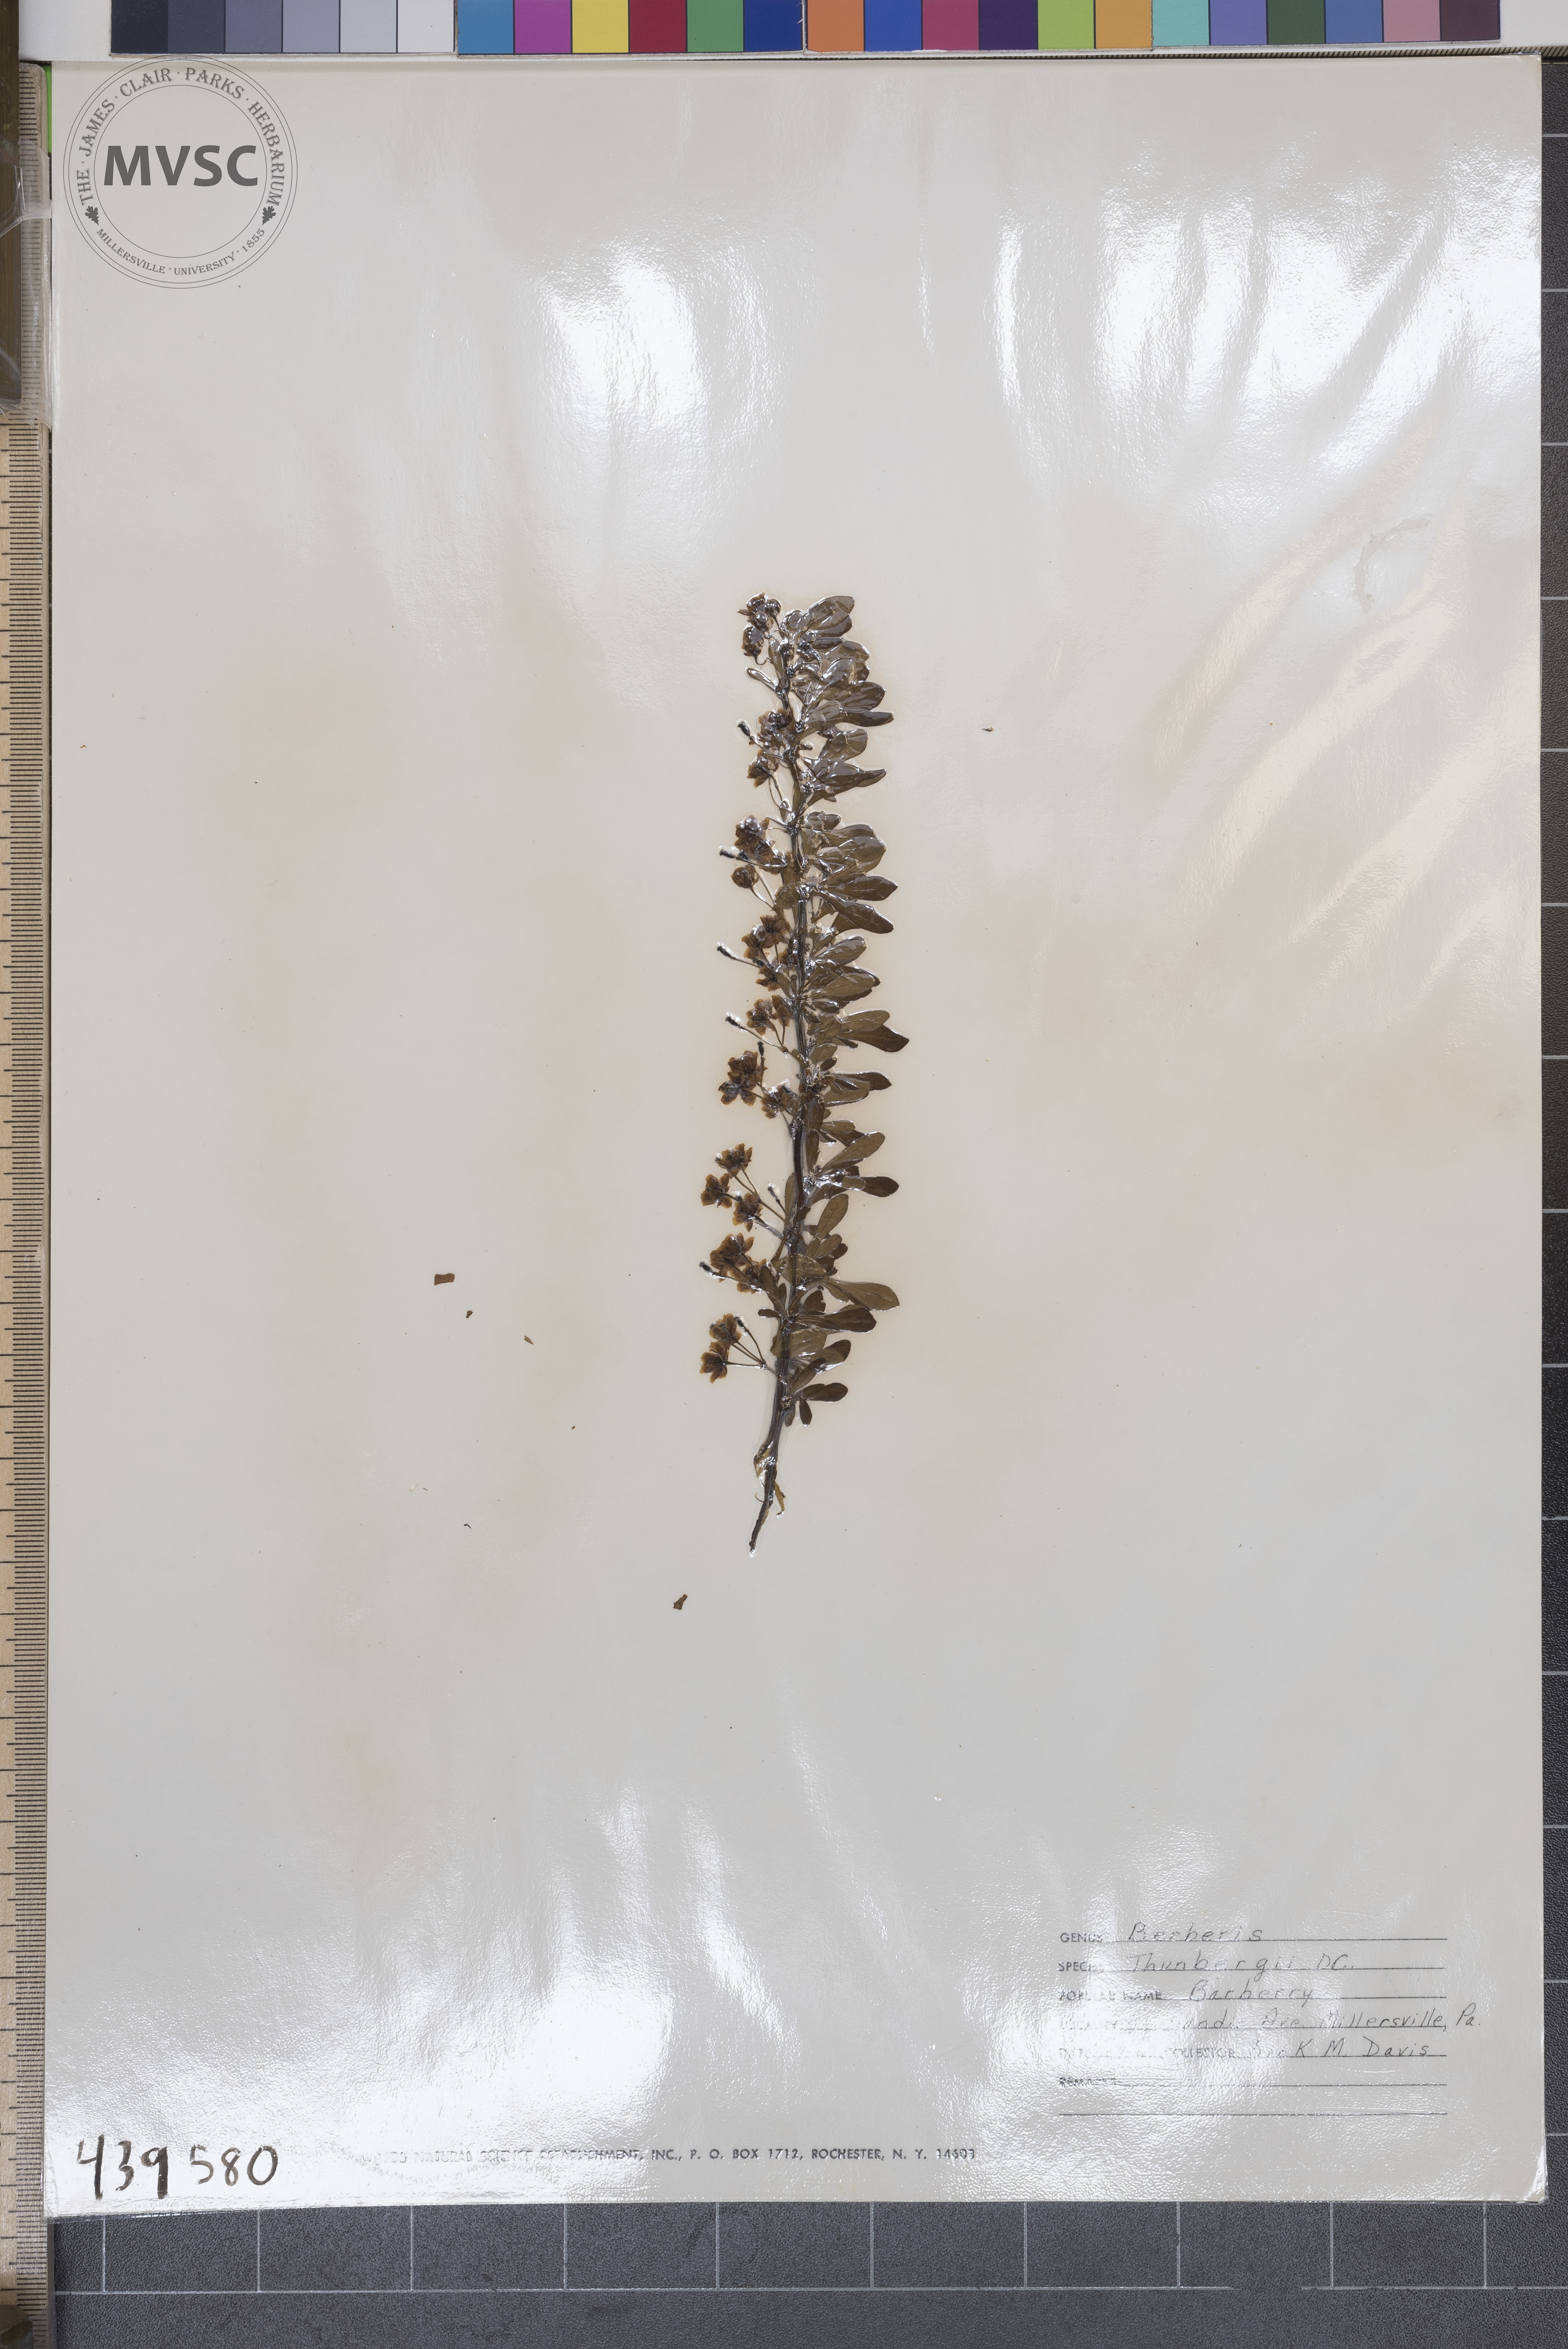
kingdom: Plantae
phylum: Tracheophyta
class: Magnoliopsida
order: Ranunculales
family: Berberidaceae
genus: Berberis
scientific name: Berberis thunbergii
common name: Barberry
